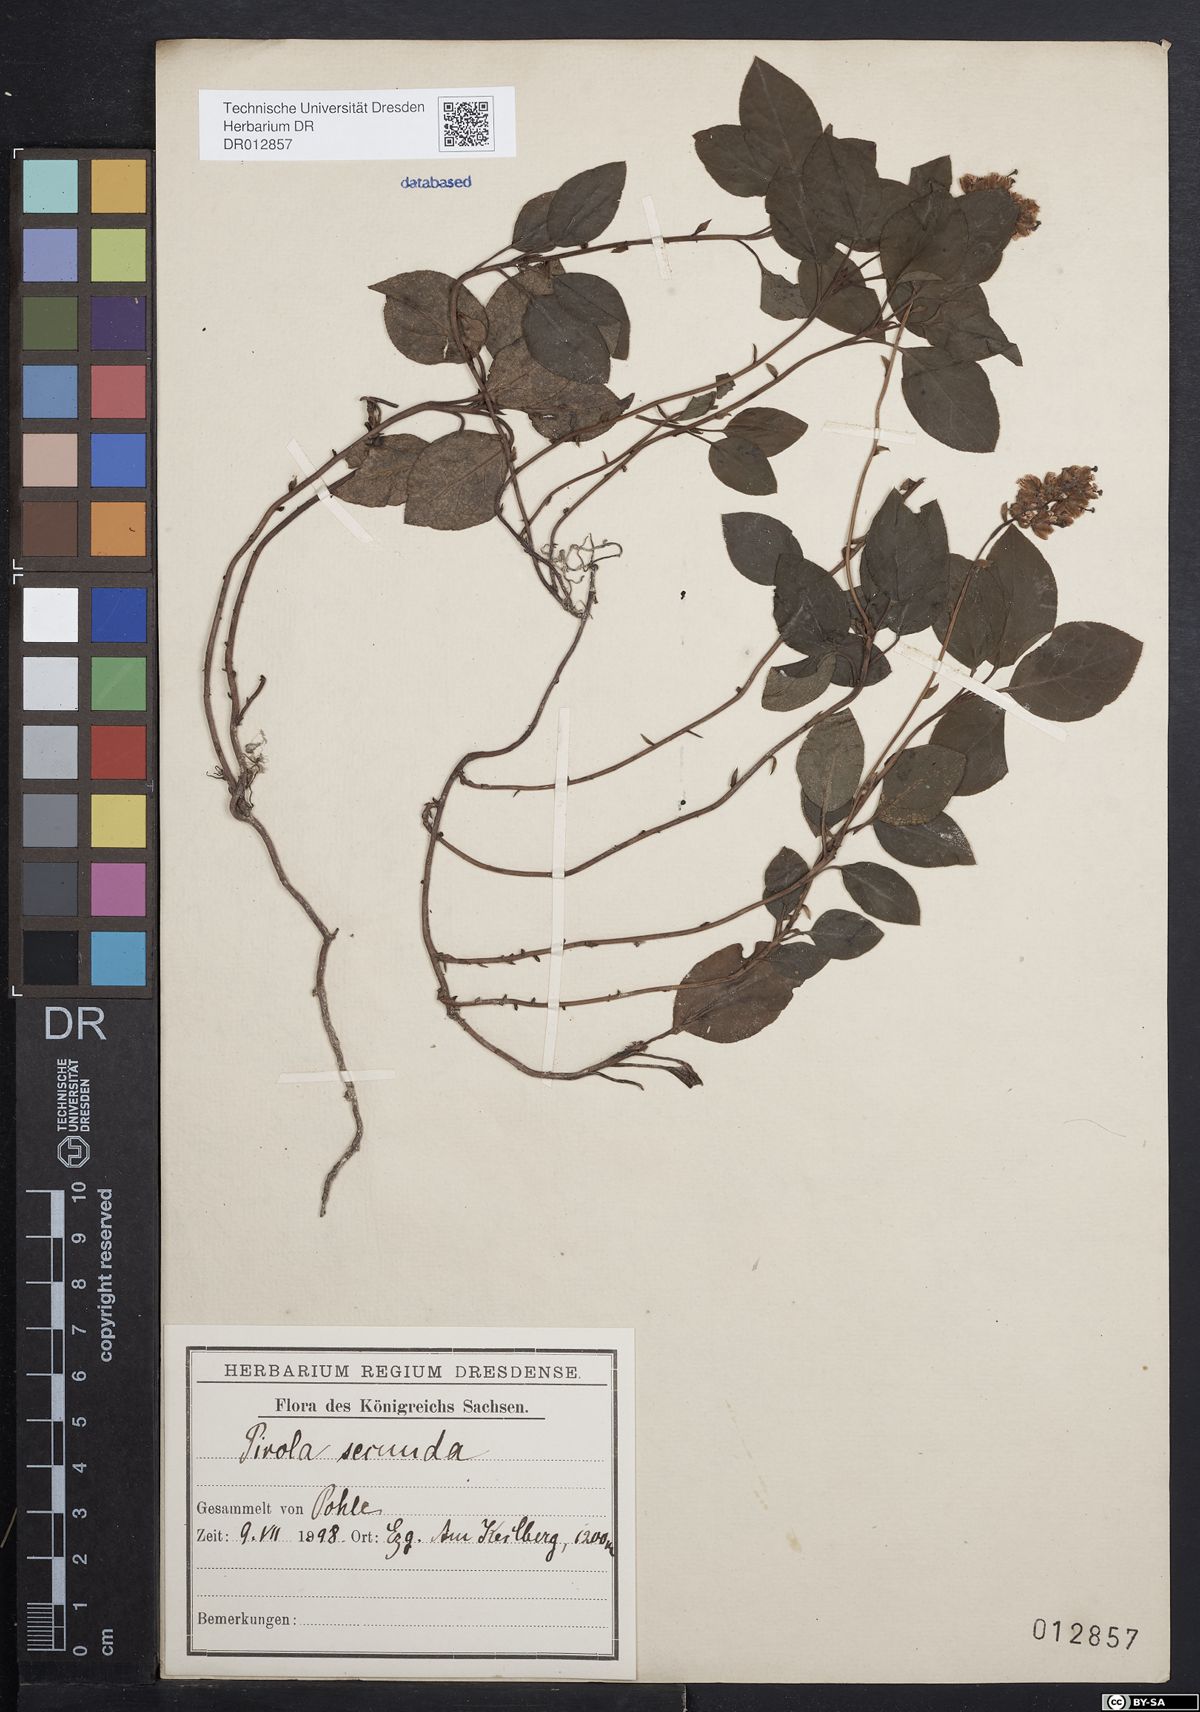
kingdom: Plantae
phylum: Tracheophyta
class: Magnoliopsida
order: Ericales
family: Ericaceae
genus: Orthilia
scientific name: Orthilia secunda
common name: One-sided orthilia
